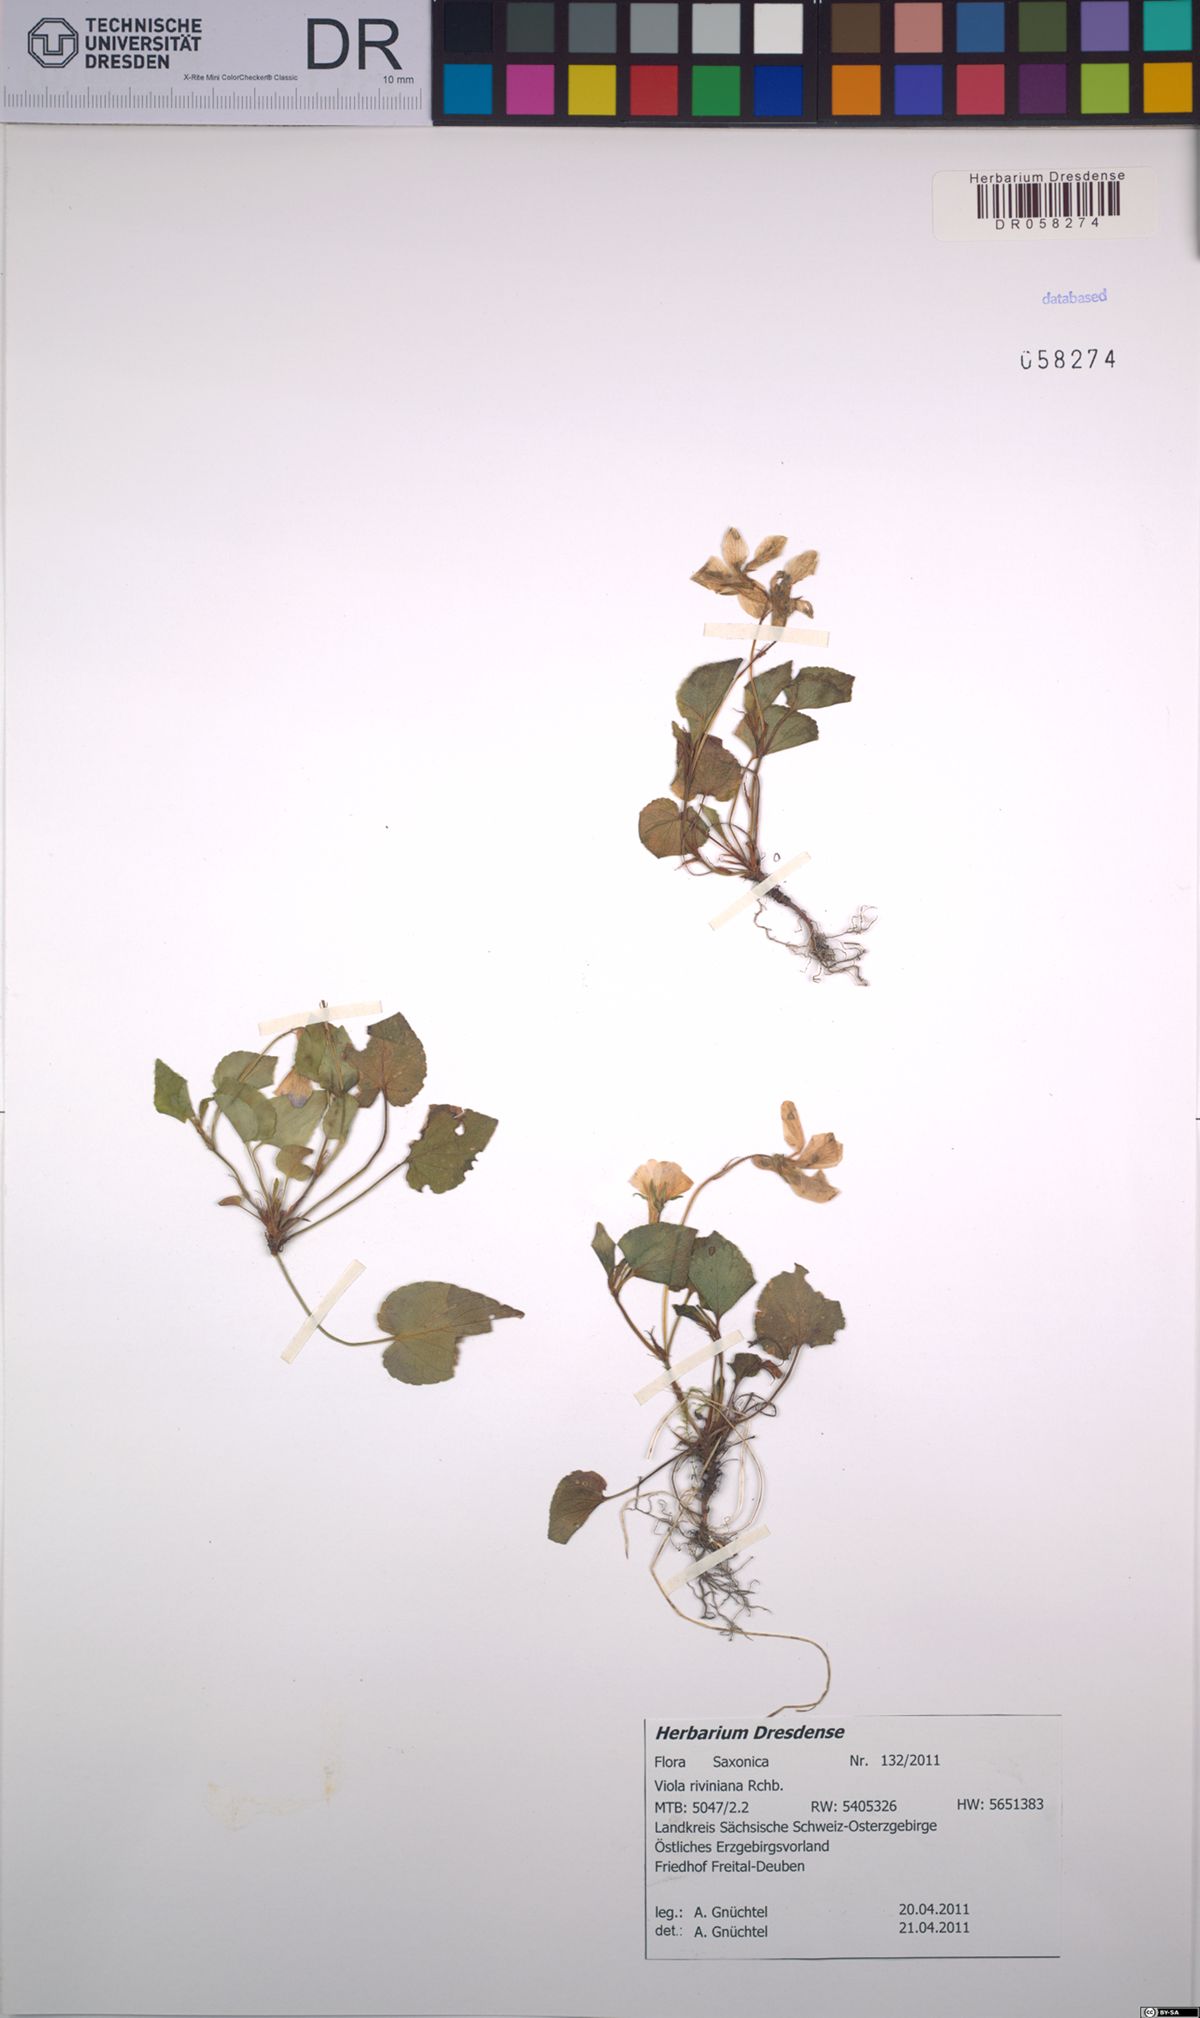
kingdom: Plantae
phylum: Tracheophyta
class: Magnoliopsida
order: Malpighiales
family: Violaceae
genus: Viola
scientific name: Viola riviniana
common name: Common dog-violet
